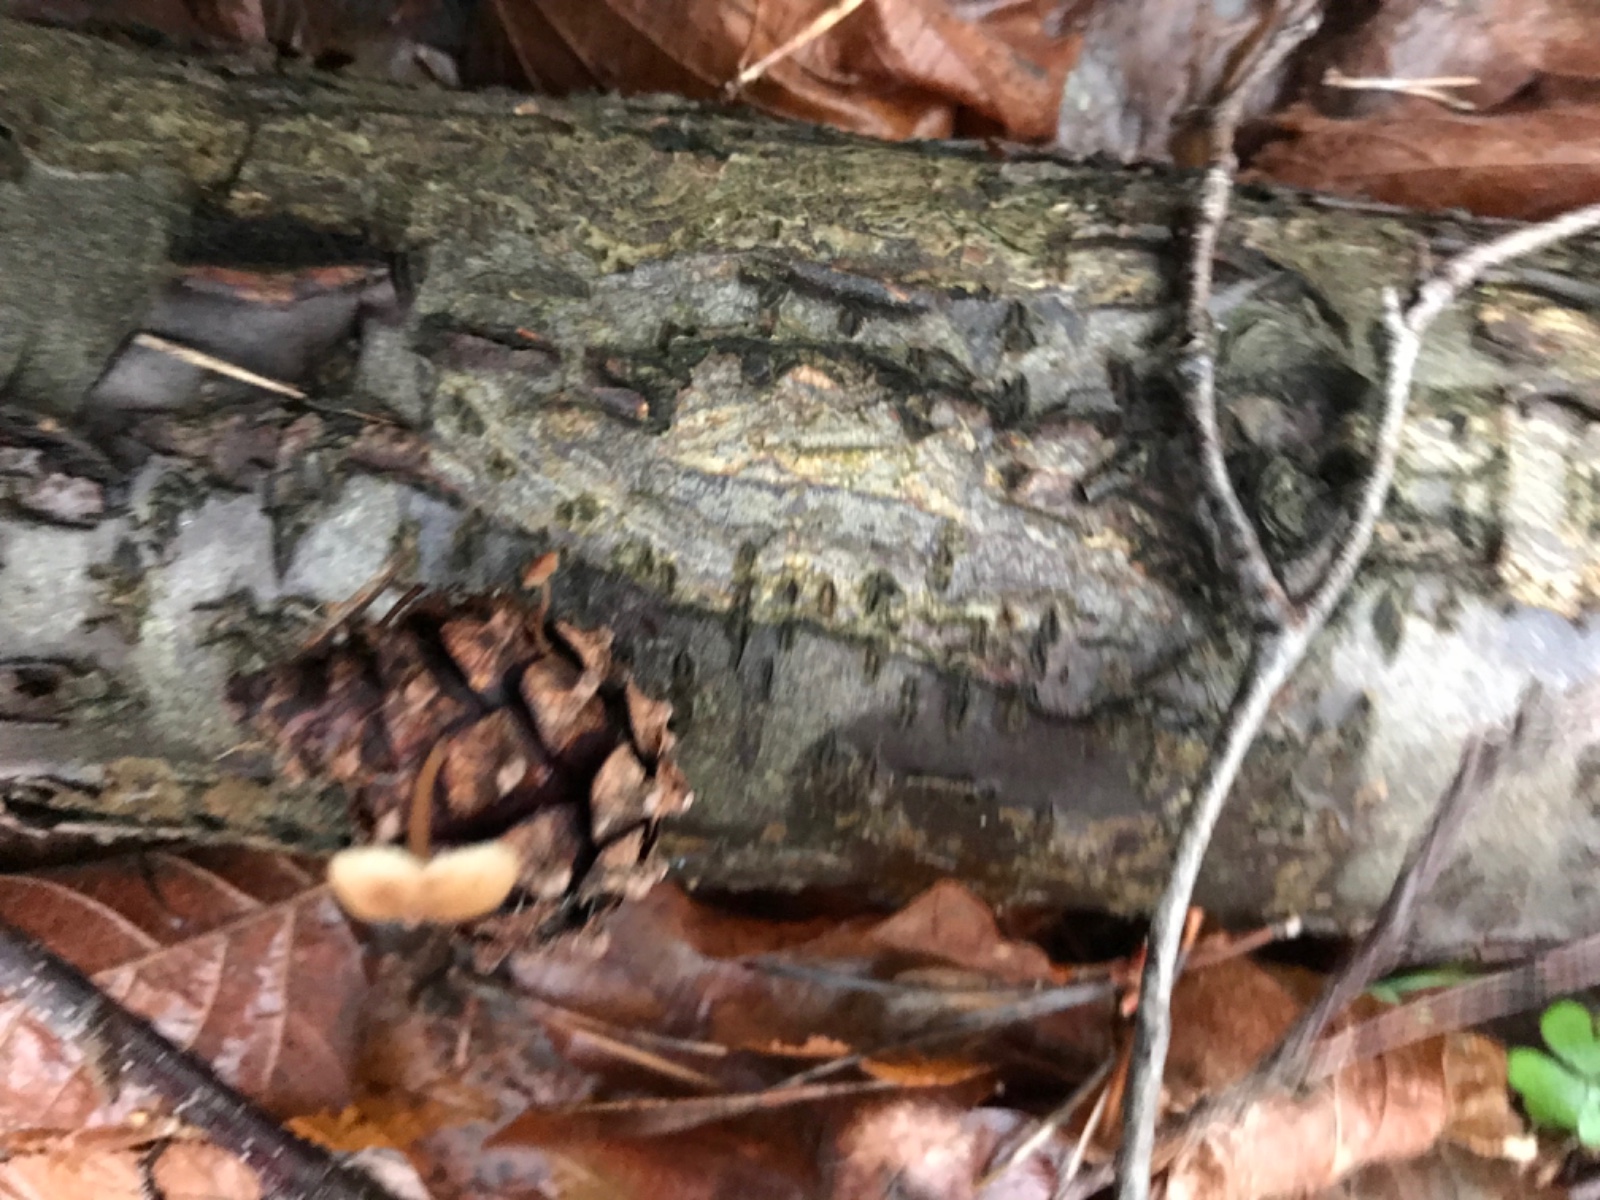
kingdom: Fungi
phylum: Basidiomycota
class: Agaricomycetes
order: Agaricales
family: Marasmiaceae
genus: Baeospora
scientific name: Baeospora myosura
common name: koglebruskhat
